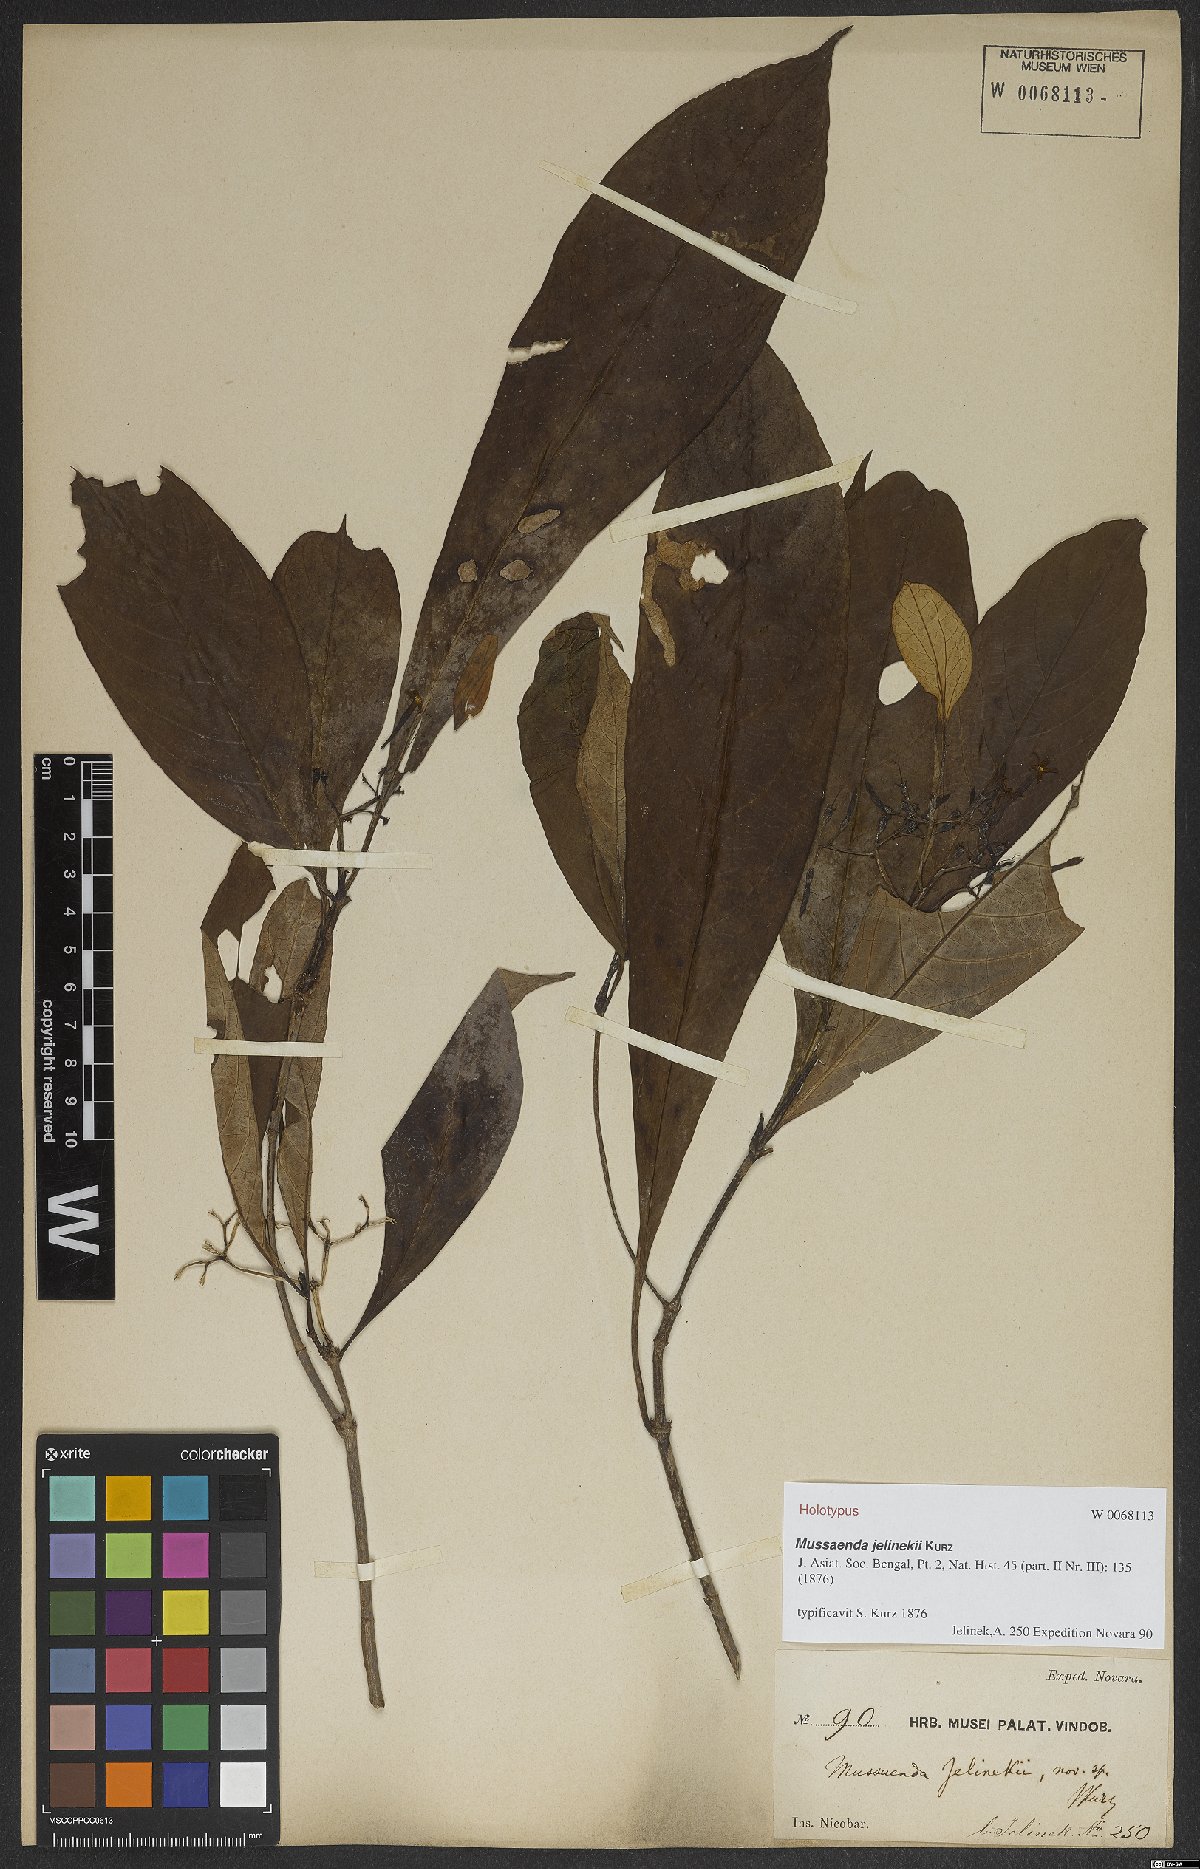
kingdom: Plantae
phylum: Tracheophyta
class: Magnoliopsida
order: Gentianales
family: Rubiaceae
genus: Mussaenda
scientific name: Mussaenda wallichii
